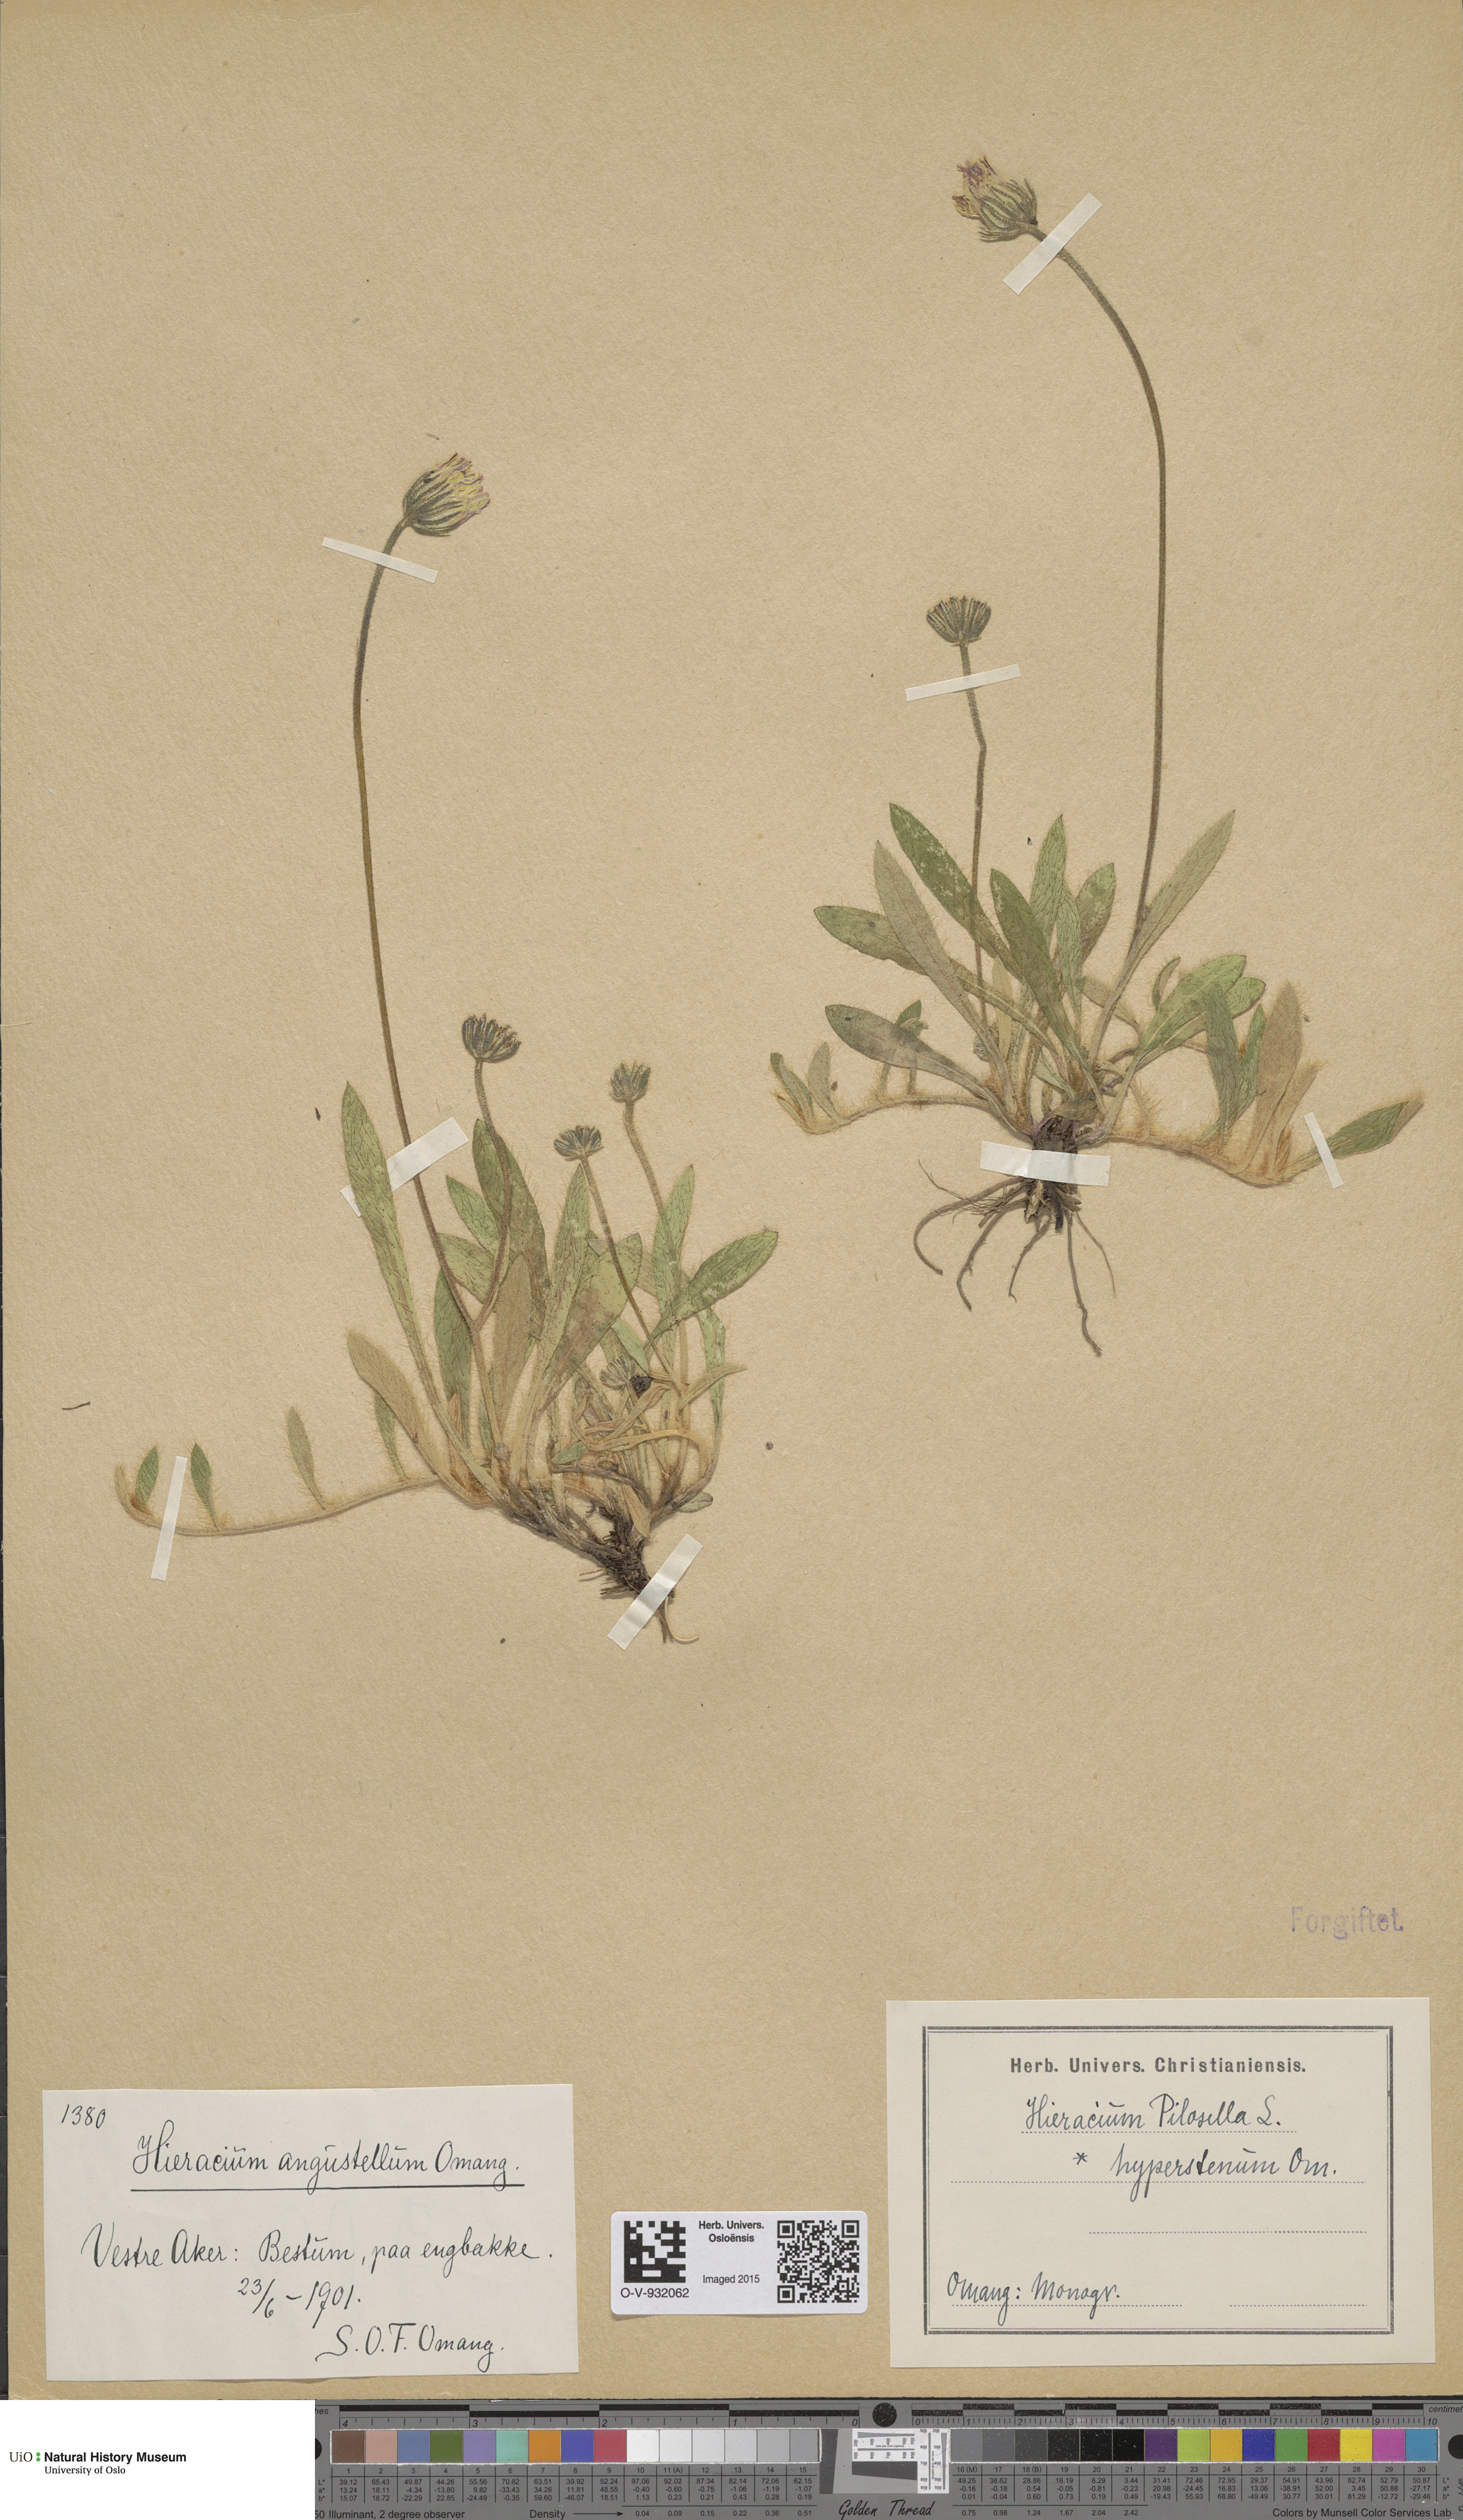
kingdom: Plantae
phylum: Tracheophyta
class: Magnoliopsida
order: Asterales
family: Asteraceae
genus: Pilosella
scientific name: Pilosella officinarum
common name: Mouse-ear hawkweed
